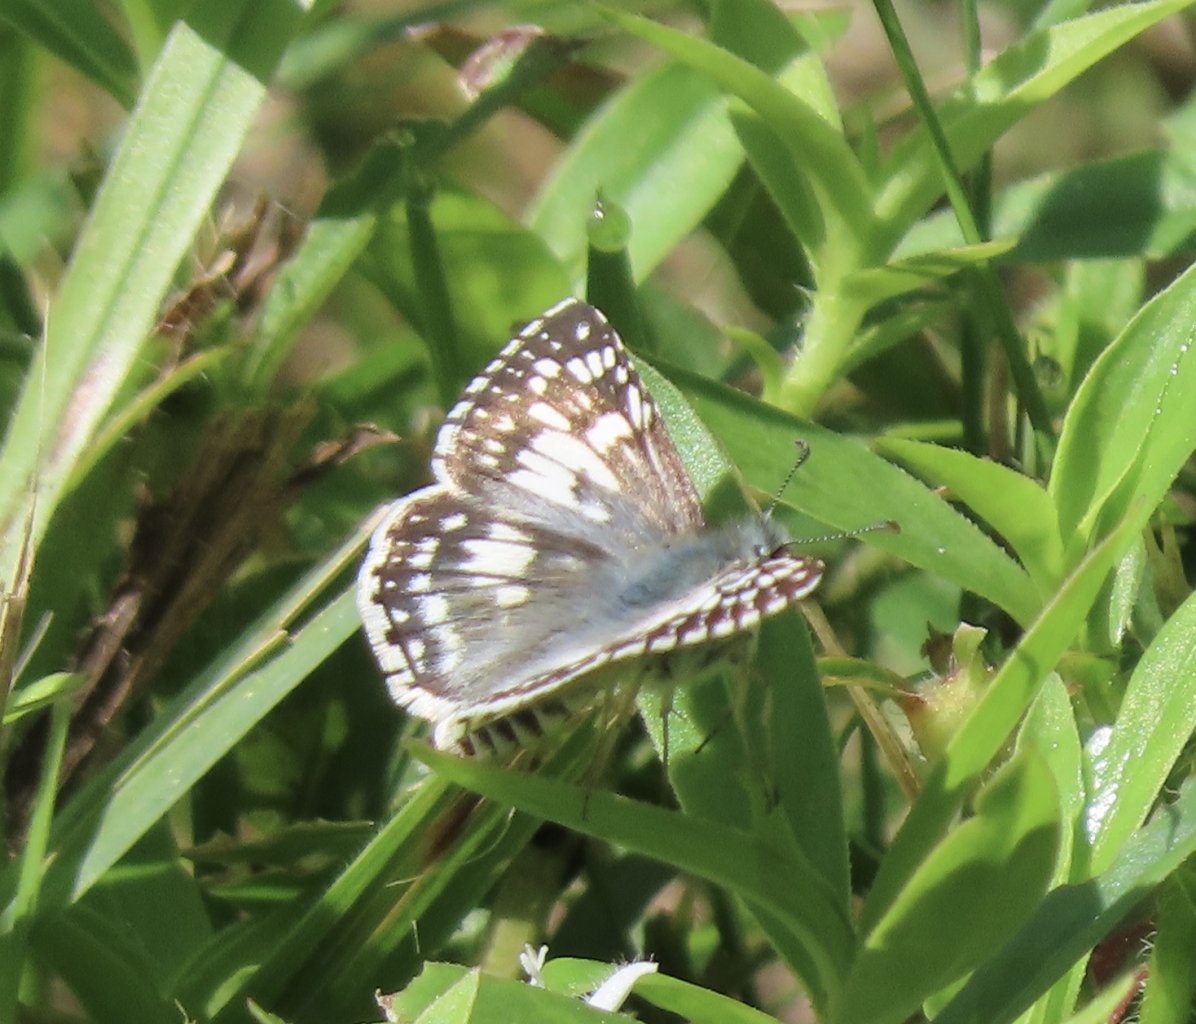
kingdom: Animalia
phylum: Arthropoda
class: Insecta
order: Lepidoptera
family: Hesperiidae
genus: Pyrgus
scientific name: Pyrgus communis
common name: Common Checkered-Skipper
